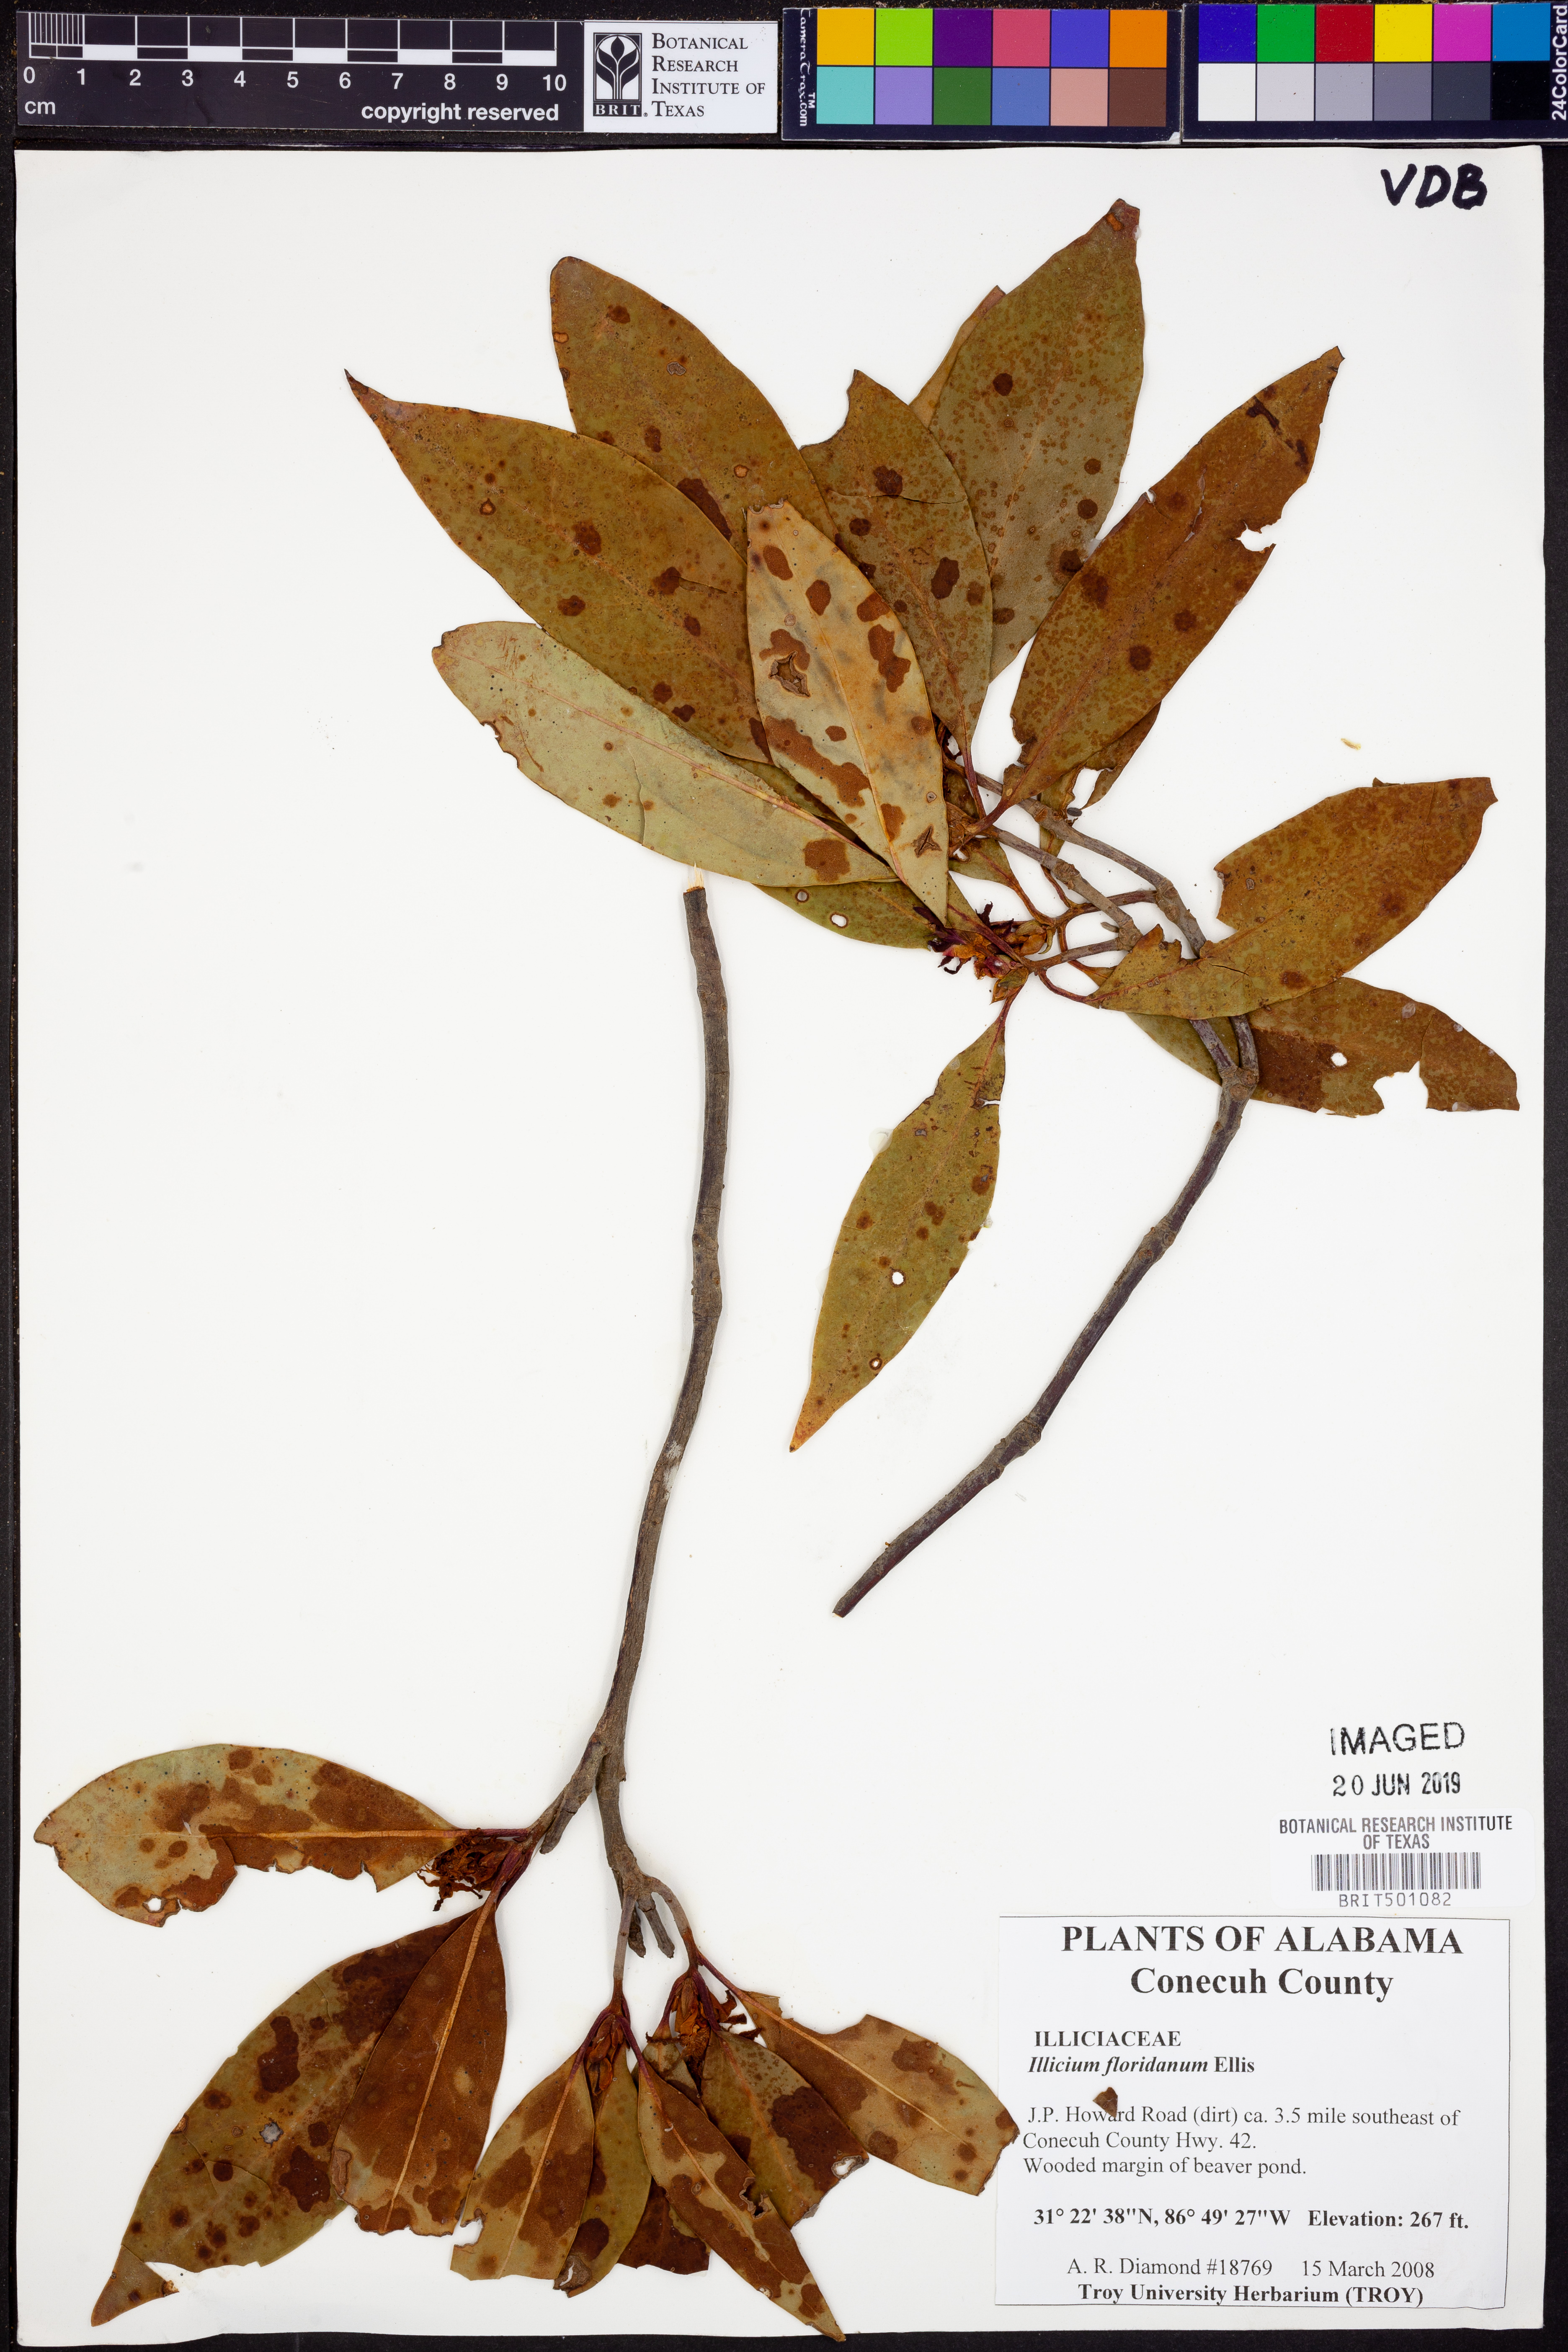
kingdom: Plantae
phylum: Tracheophyta
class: Magnoliopsida
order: Austrobaileyales
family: Schisandraceae
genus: Illicium
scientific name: Illicium floridanum
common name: Florida anisetree
